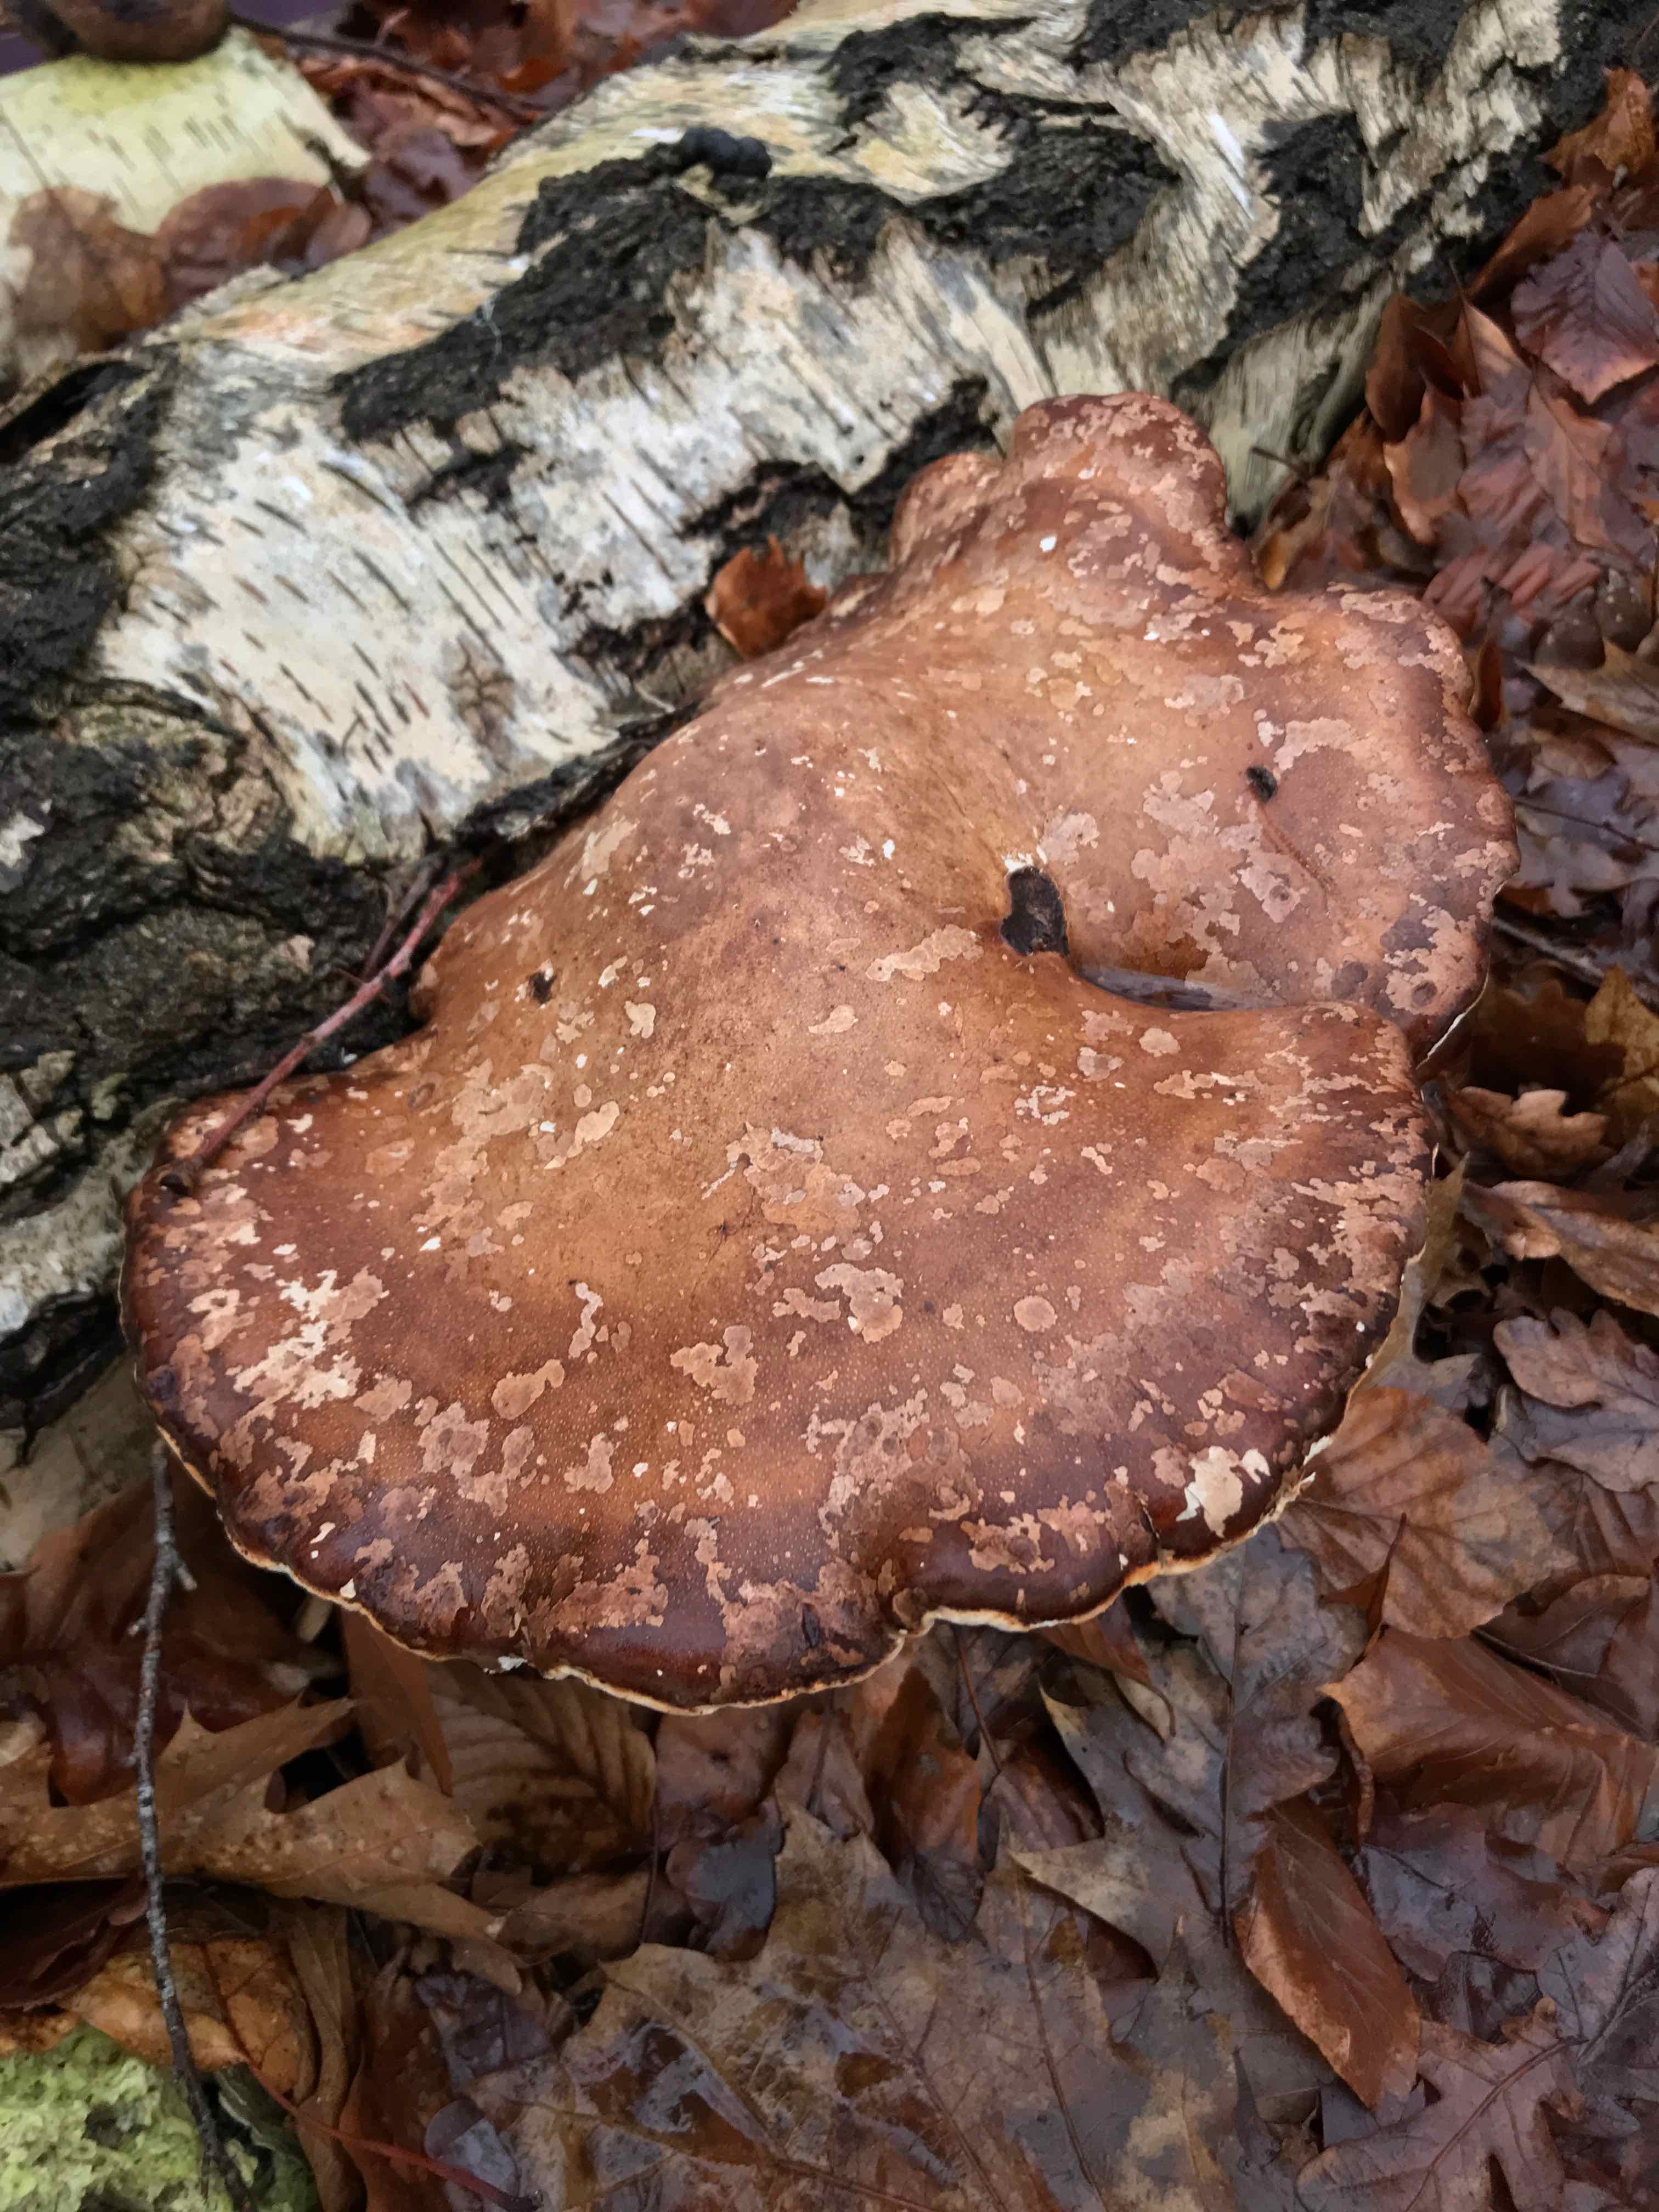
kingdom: Fungi
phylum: Basidiomycota
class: Agaricomycetes
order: Polyporales
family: Fomitopsidaceae
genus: Fomitopsis
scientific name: Fomitopsis betulina
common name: birkeporesvamp
